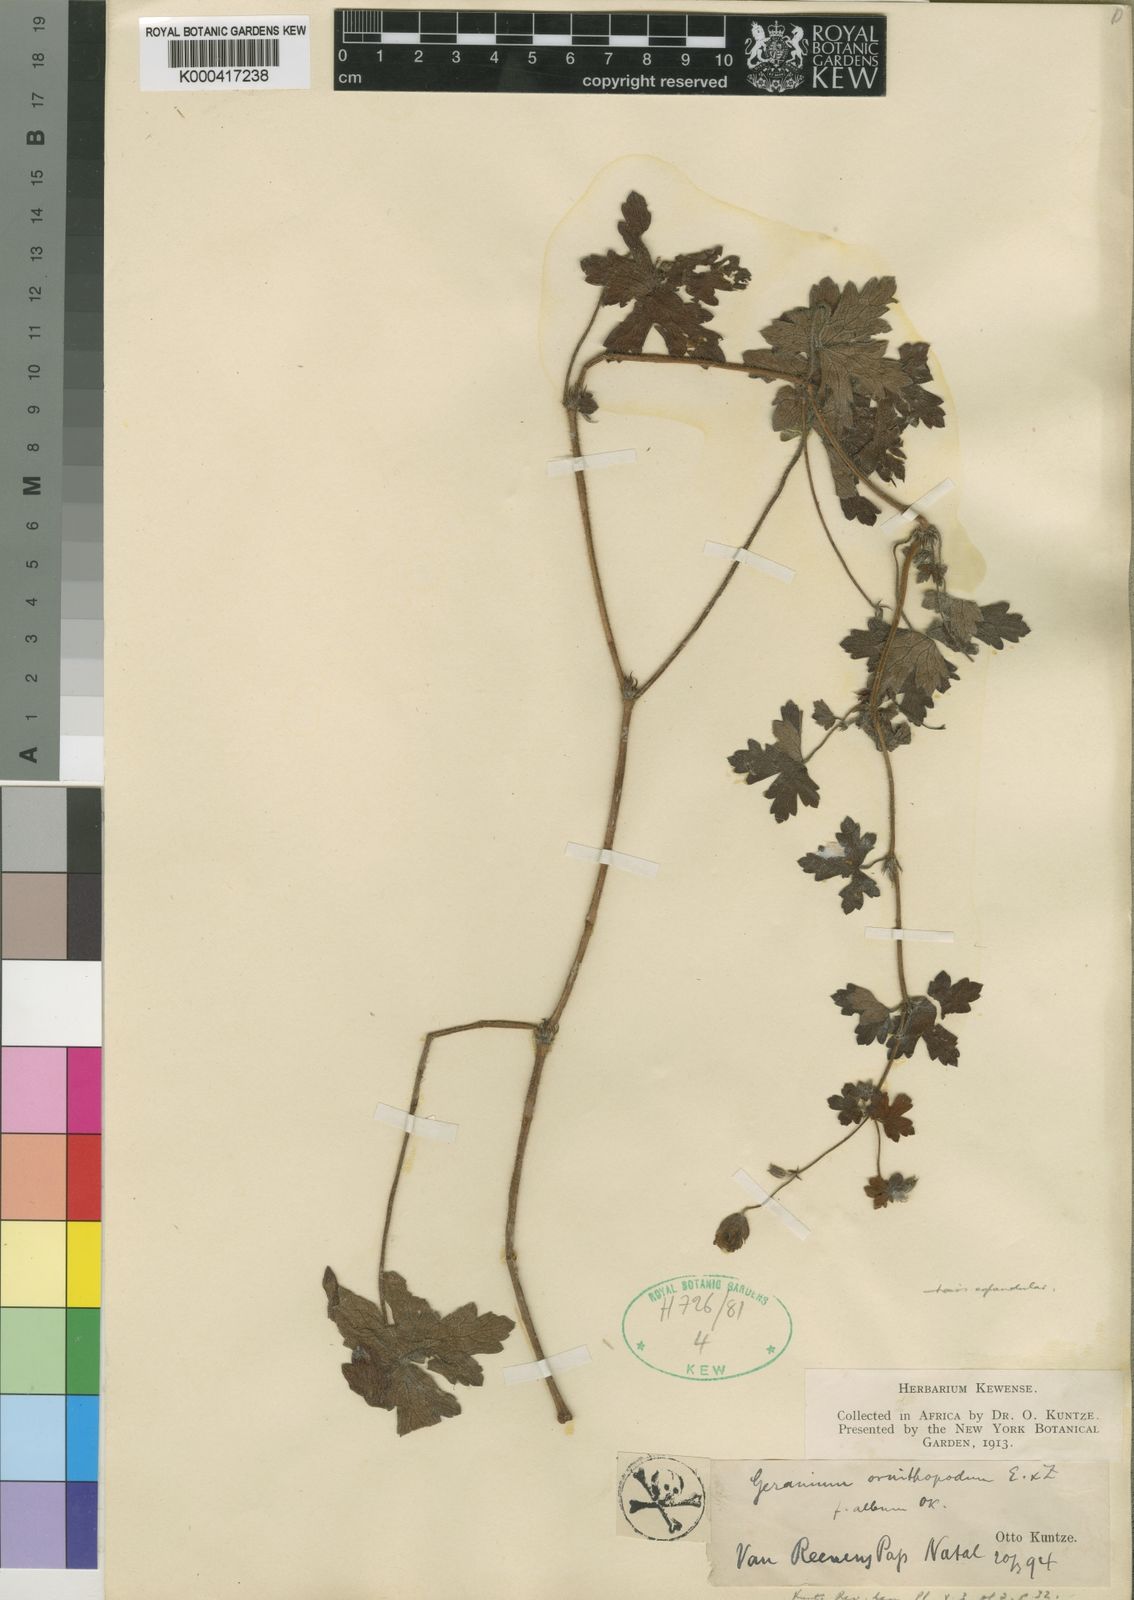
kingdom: Plantae
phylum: Tracheophyta
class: Magnoliopsida
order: Geraniales
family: Geraniaceae
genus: Geranium
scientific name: Geranium wakkerstroomianum
